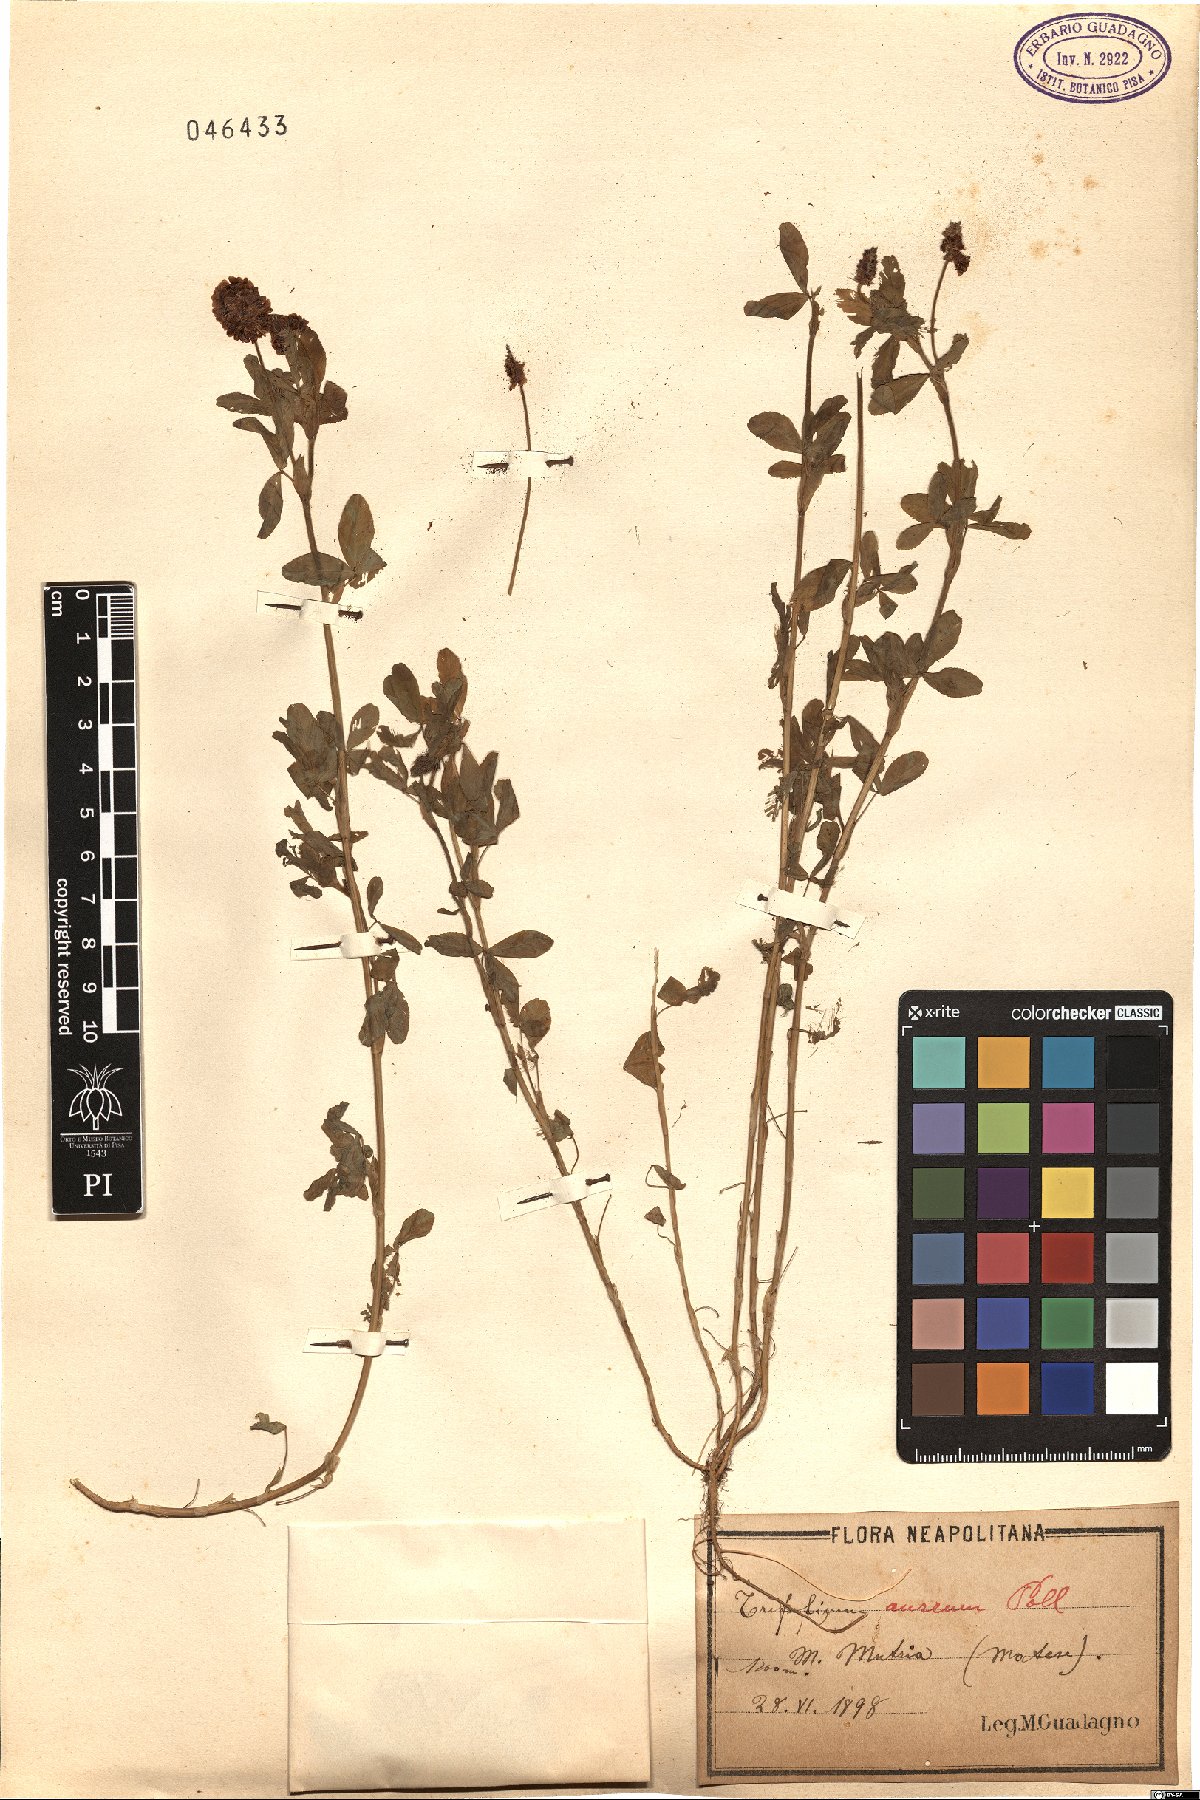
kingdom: Plantae
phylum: Tracheophyta
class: Magnoliopsida
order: Fabales
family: Fabaceae
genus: Trifolium
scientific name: Trifolium aureum
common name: Golden clover
